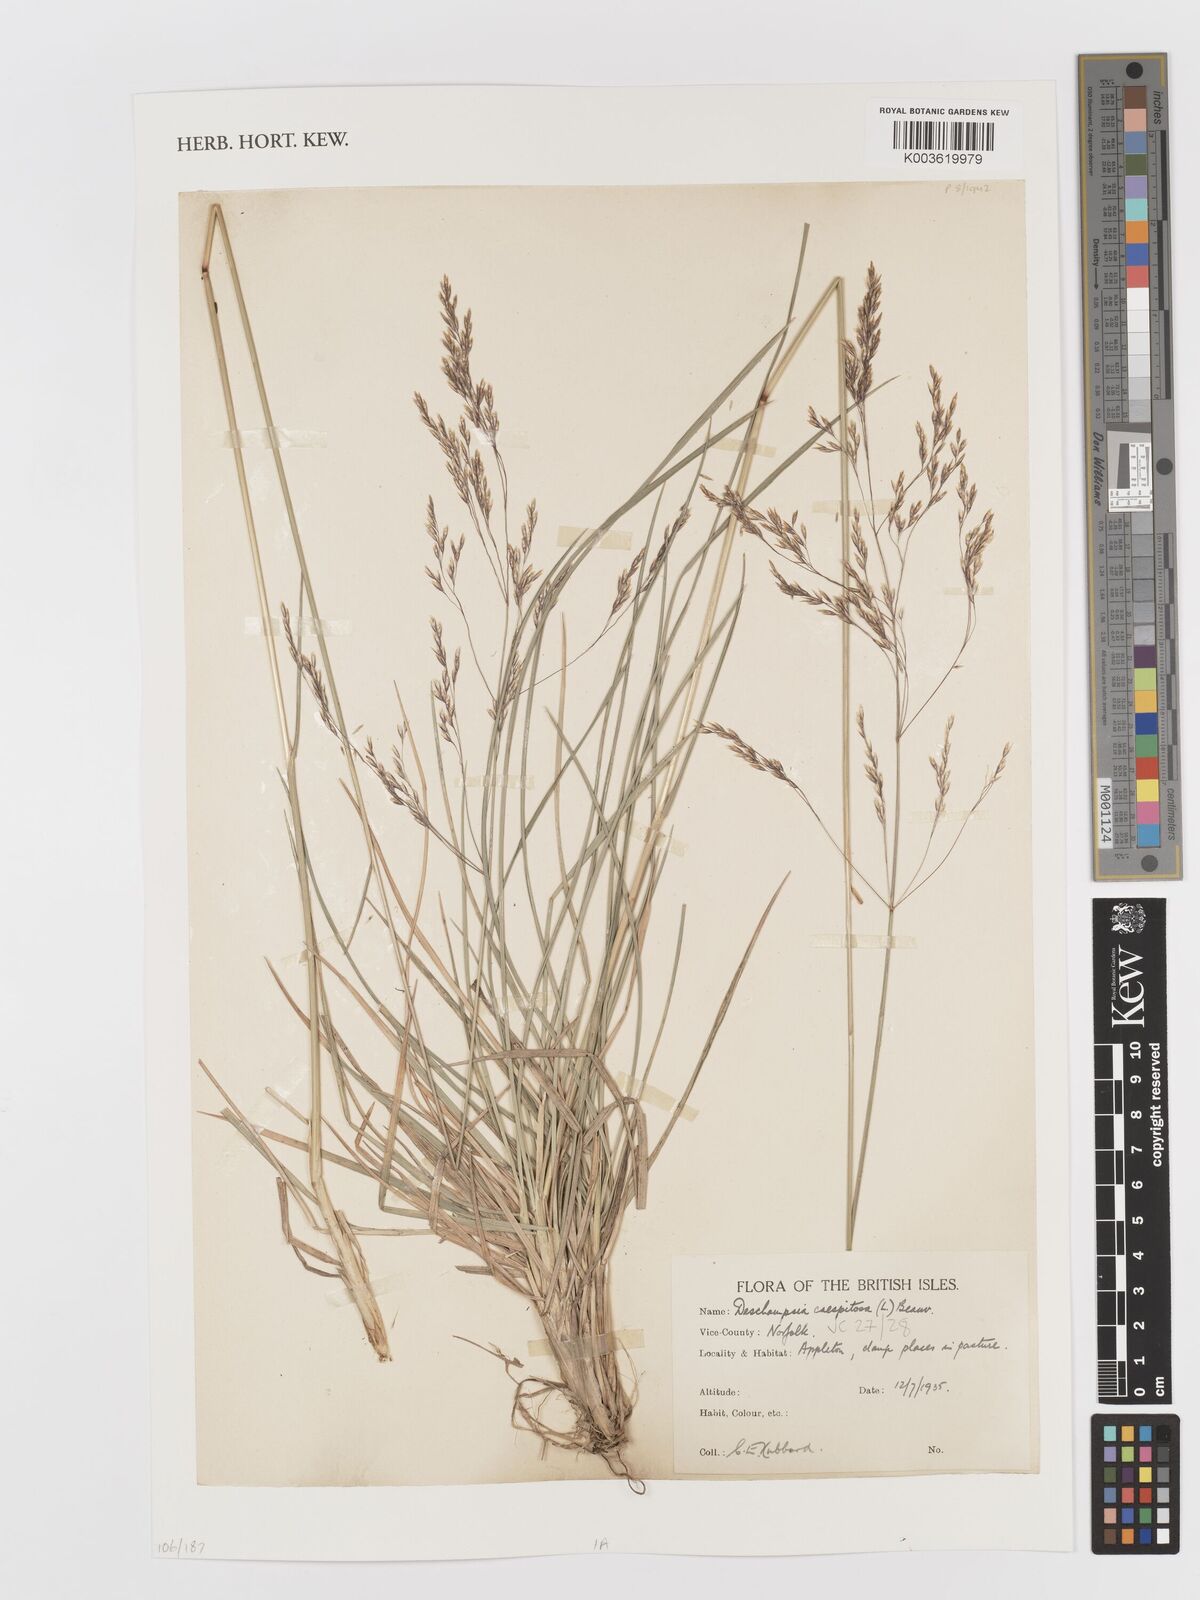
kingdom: Plantae
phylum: Tracheophyta
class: Liliopsida
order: Poales
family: Poaceae
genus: Deschampsia
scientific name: Deschampsia cespitosa
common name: Tufted hair-grass
